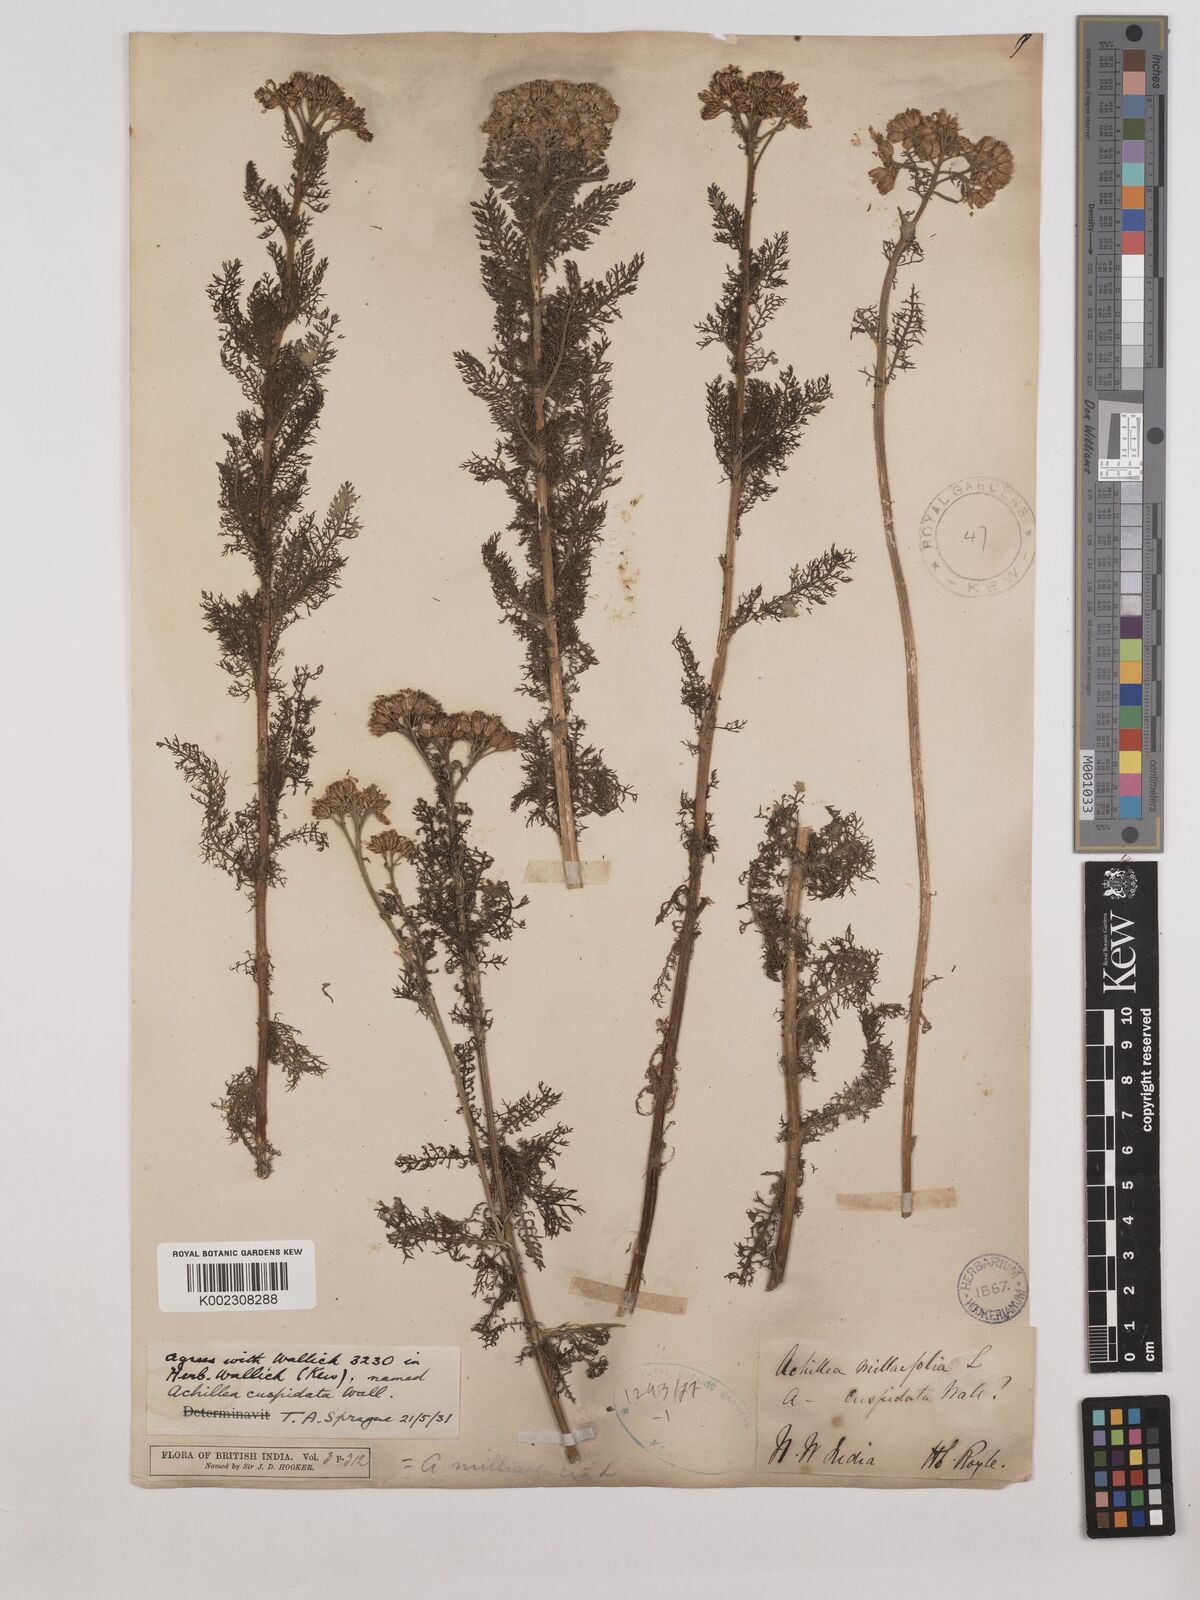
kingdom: Plantae
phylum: Tracheophyta
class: Magnoliopsida
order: Asterales
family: Asteraceae
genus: Achillea
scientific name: Achillea millefolium
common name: Yarrow
